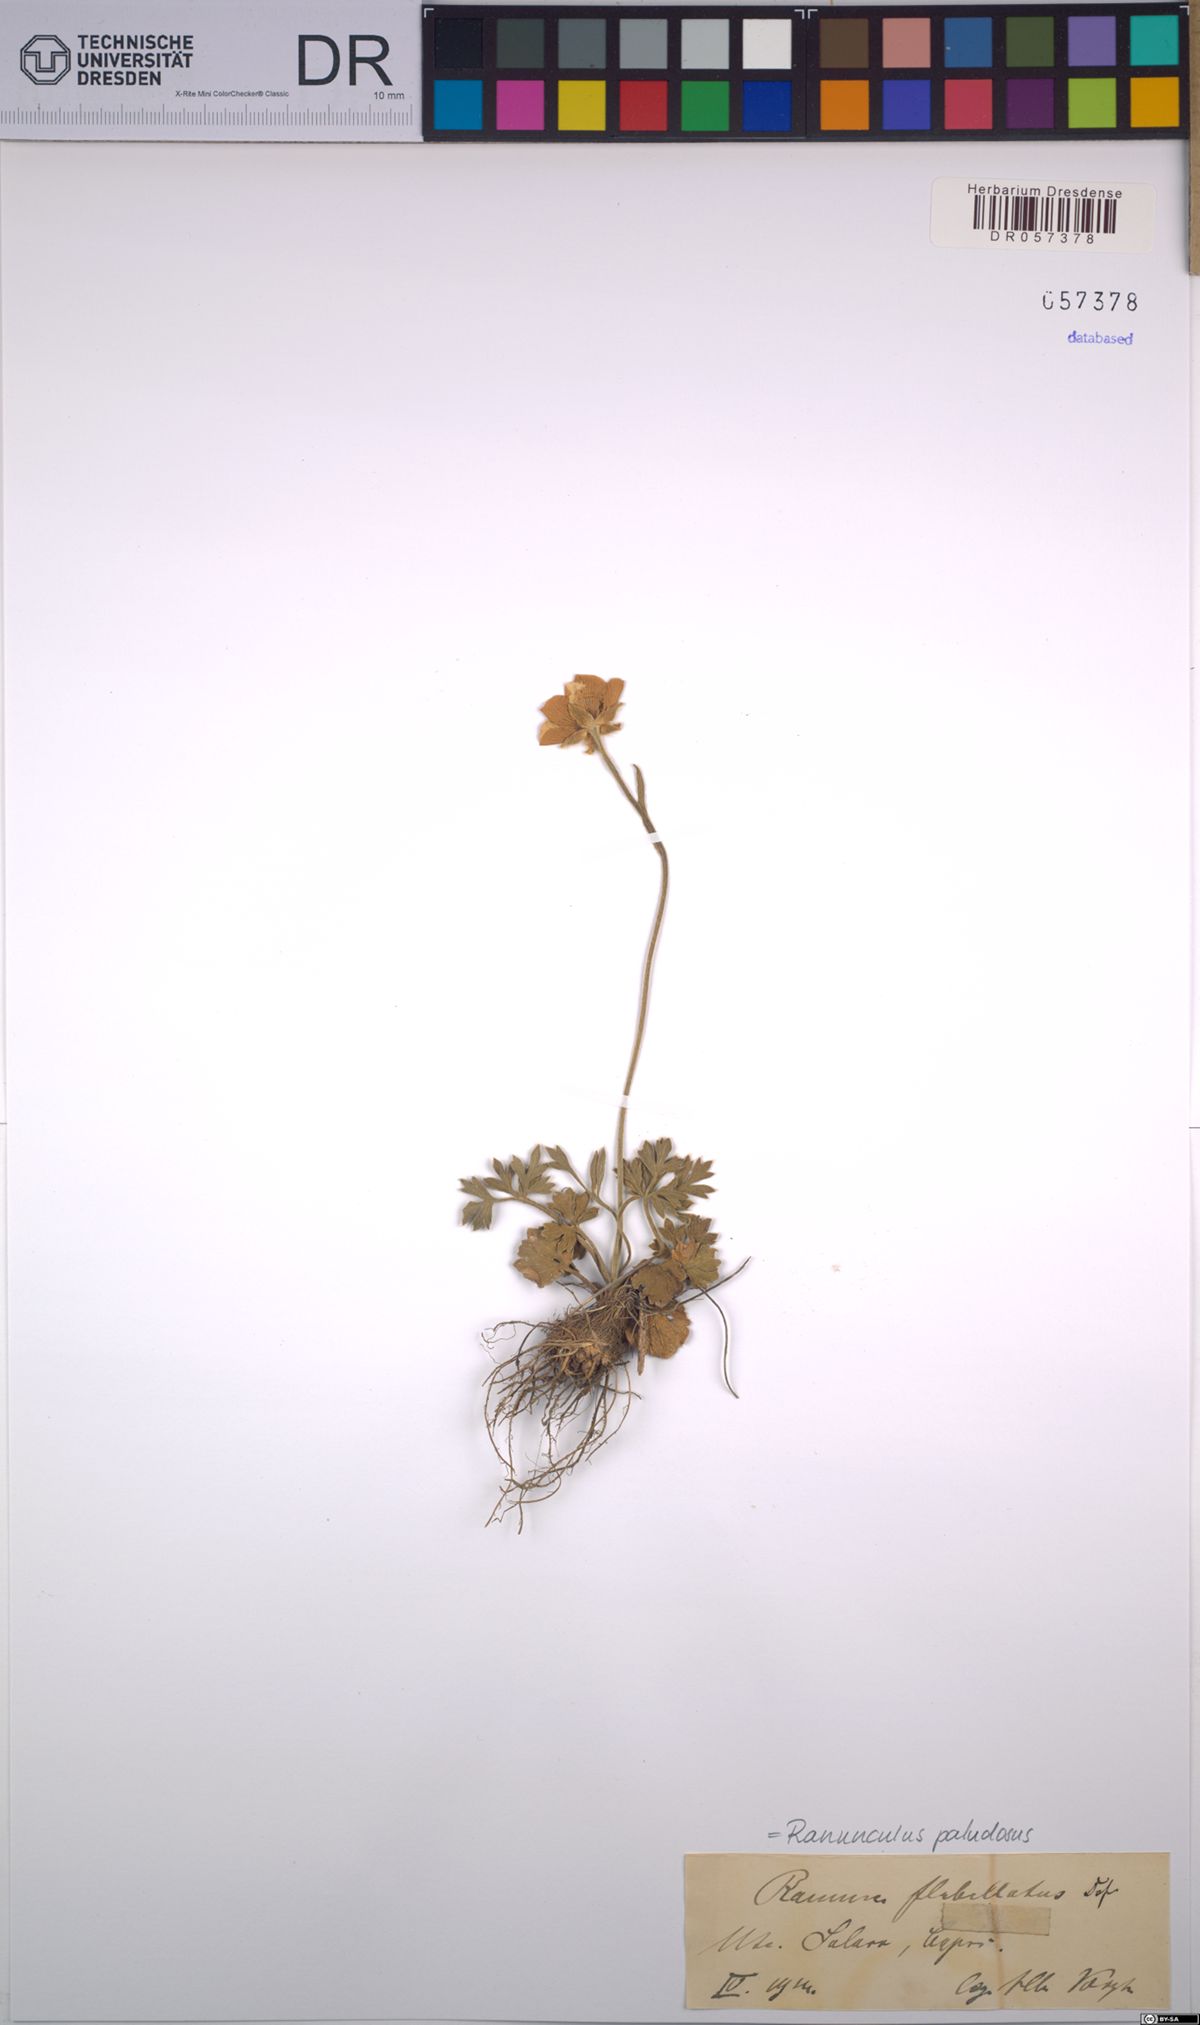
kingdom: Plantae
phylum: Tracheophyta
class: Magnoliopsida
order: Ranunculales
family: Ranunculaceae
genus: Ranunculus
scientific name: Ranunculus paludosus
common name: Jersey buttercup
